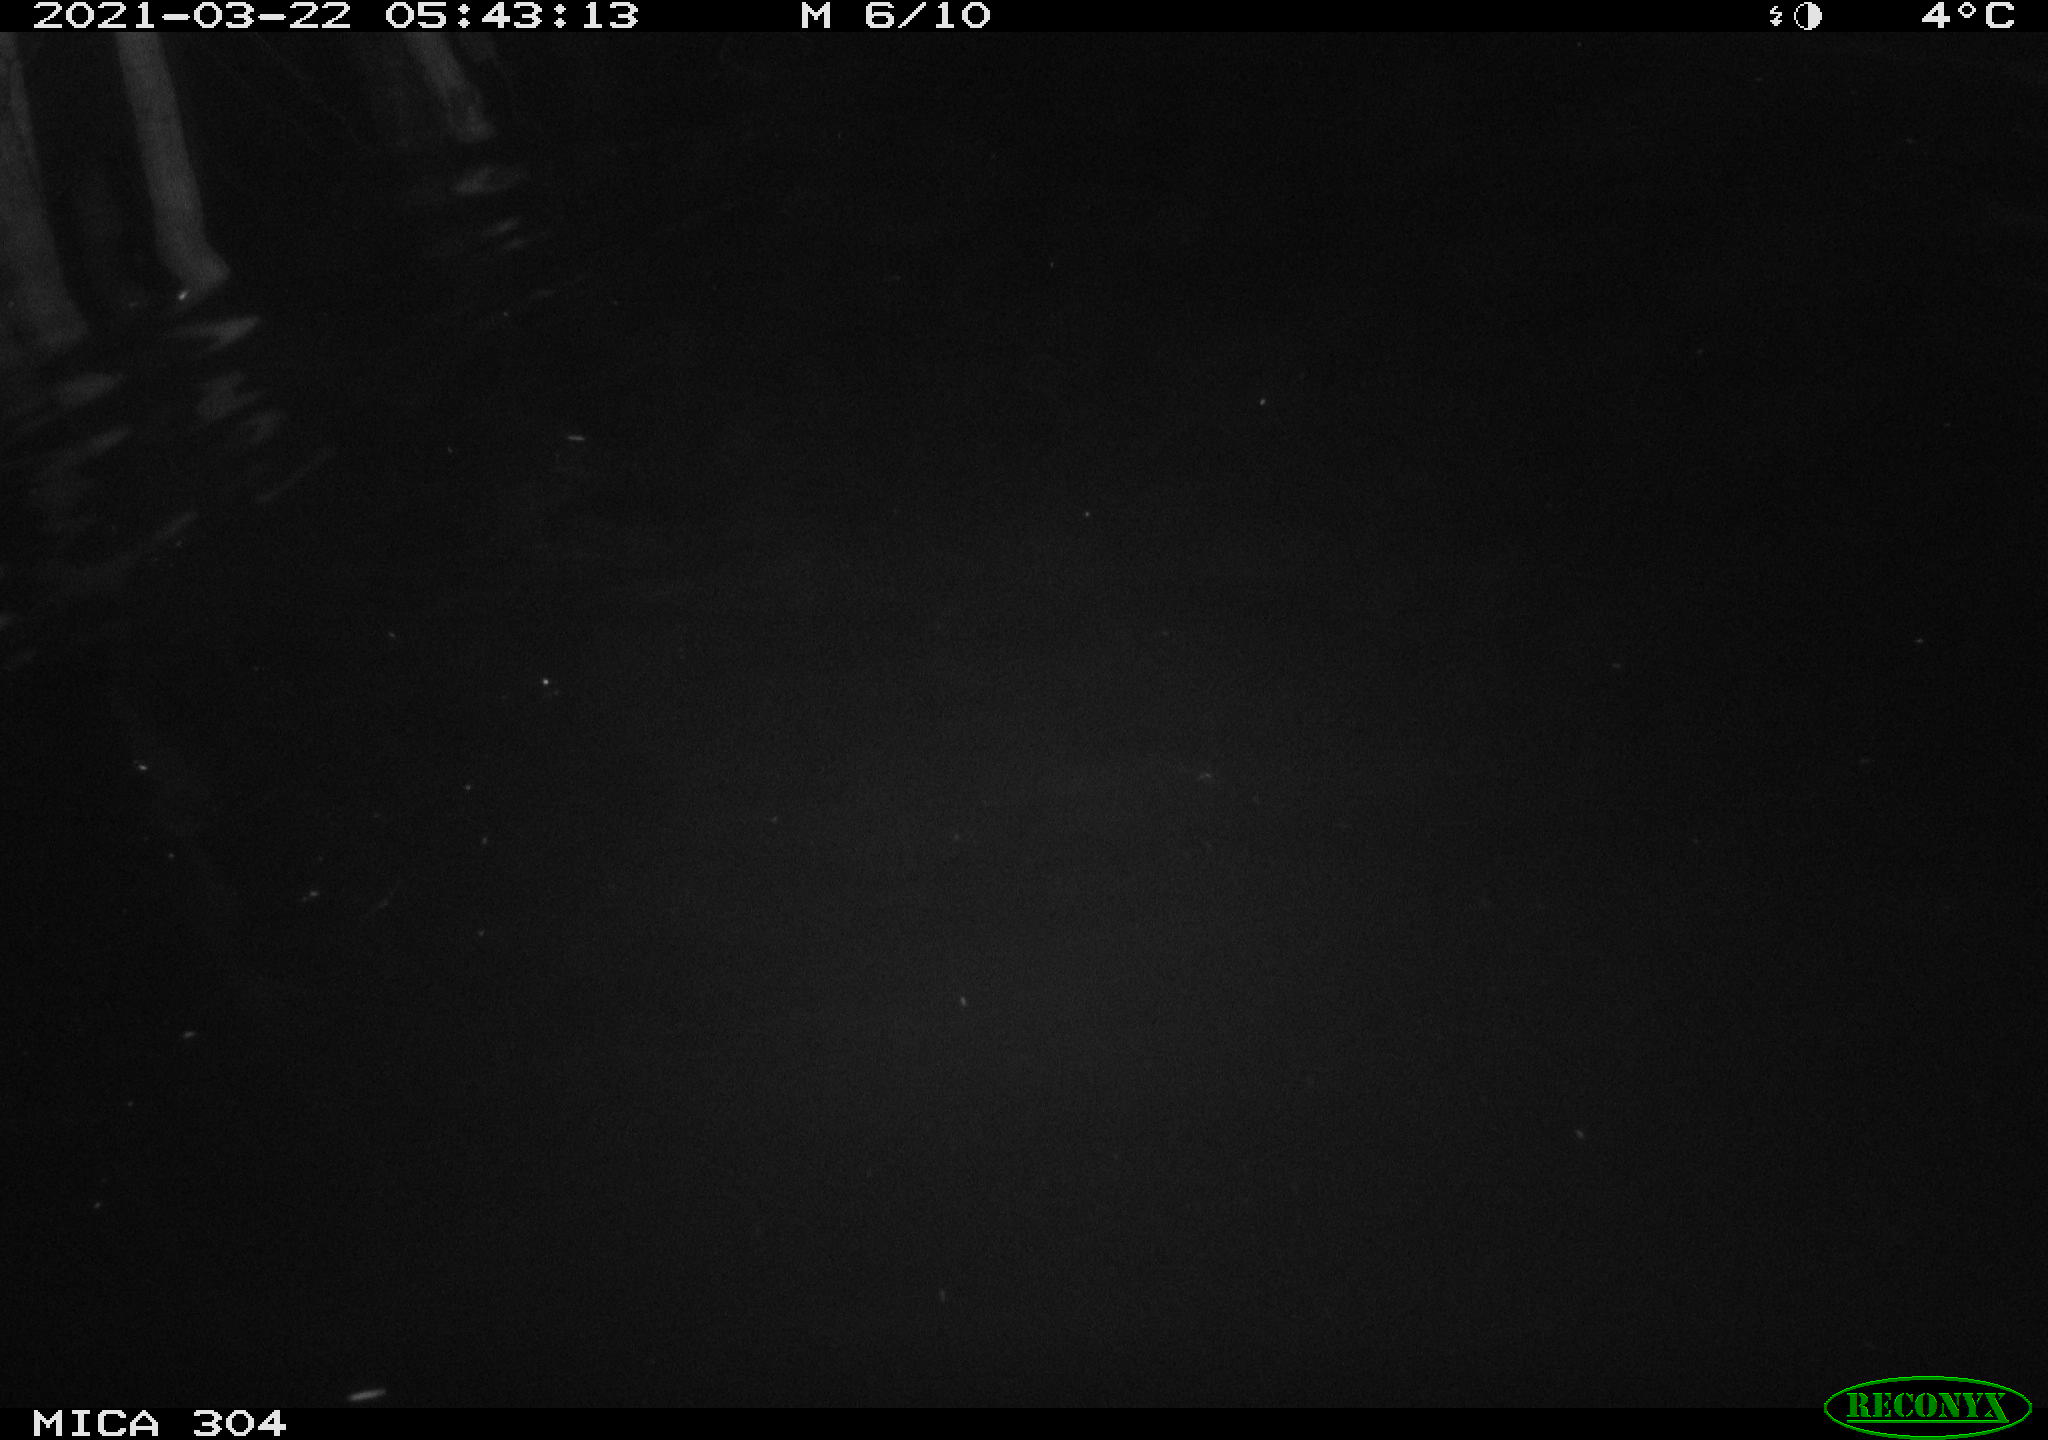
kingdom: Animalia
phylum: Chordata
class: Mammalia
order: Rodentia
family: Cricetidae
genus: Ondatra
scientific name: Ondatra zibethicus
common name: Muskrat
